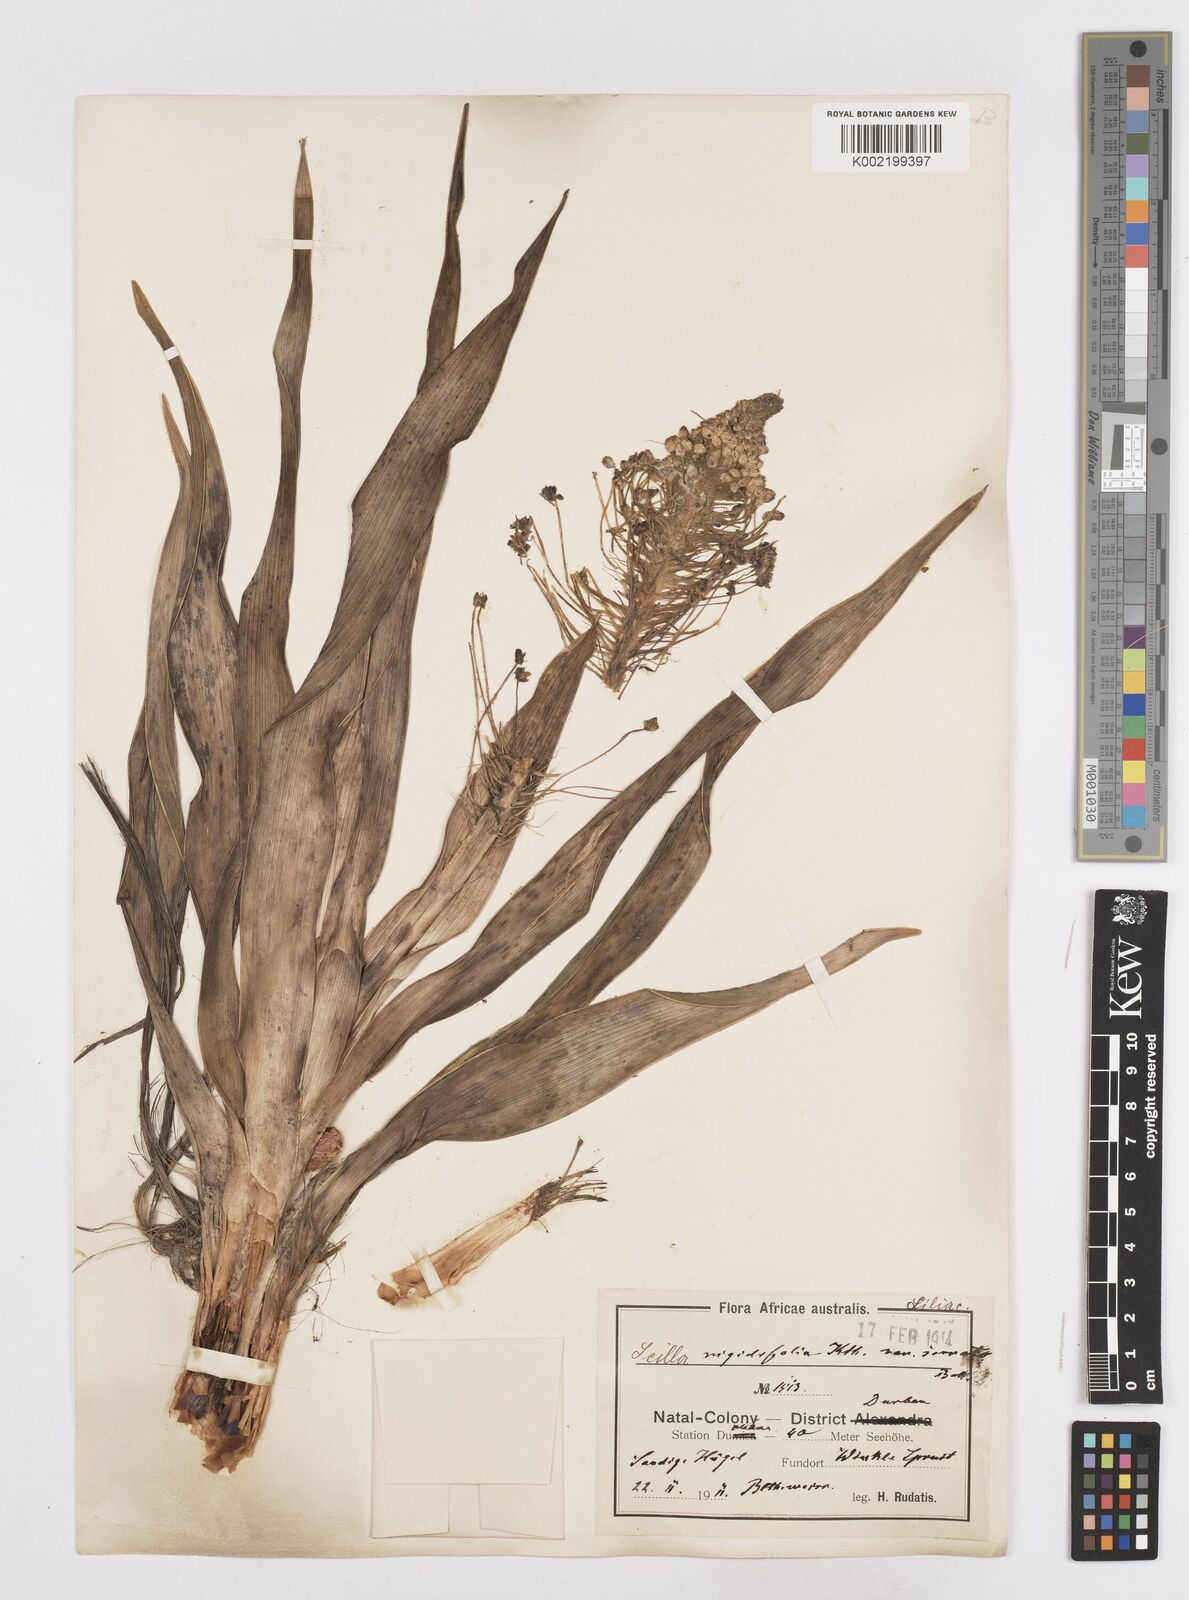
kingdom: Plantae
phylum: Tracheophyta
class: Liliopsida
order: Asparagales
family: Asparagaceae
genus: Schizocarphus
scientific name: Schizocarphus nervosus
